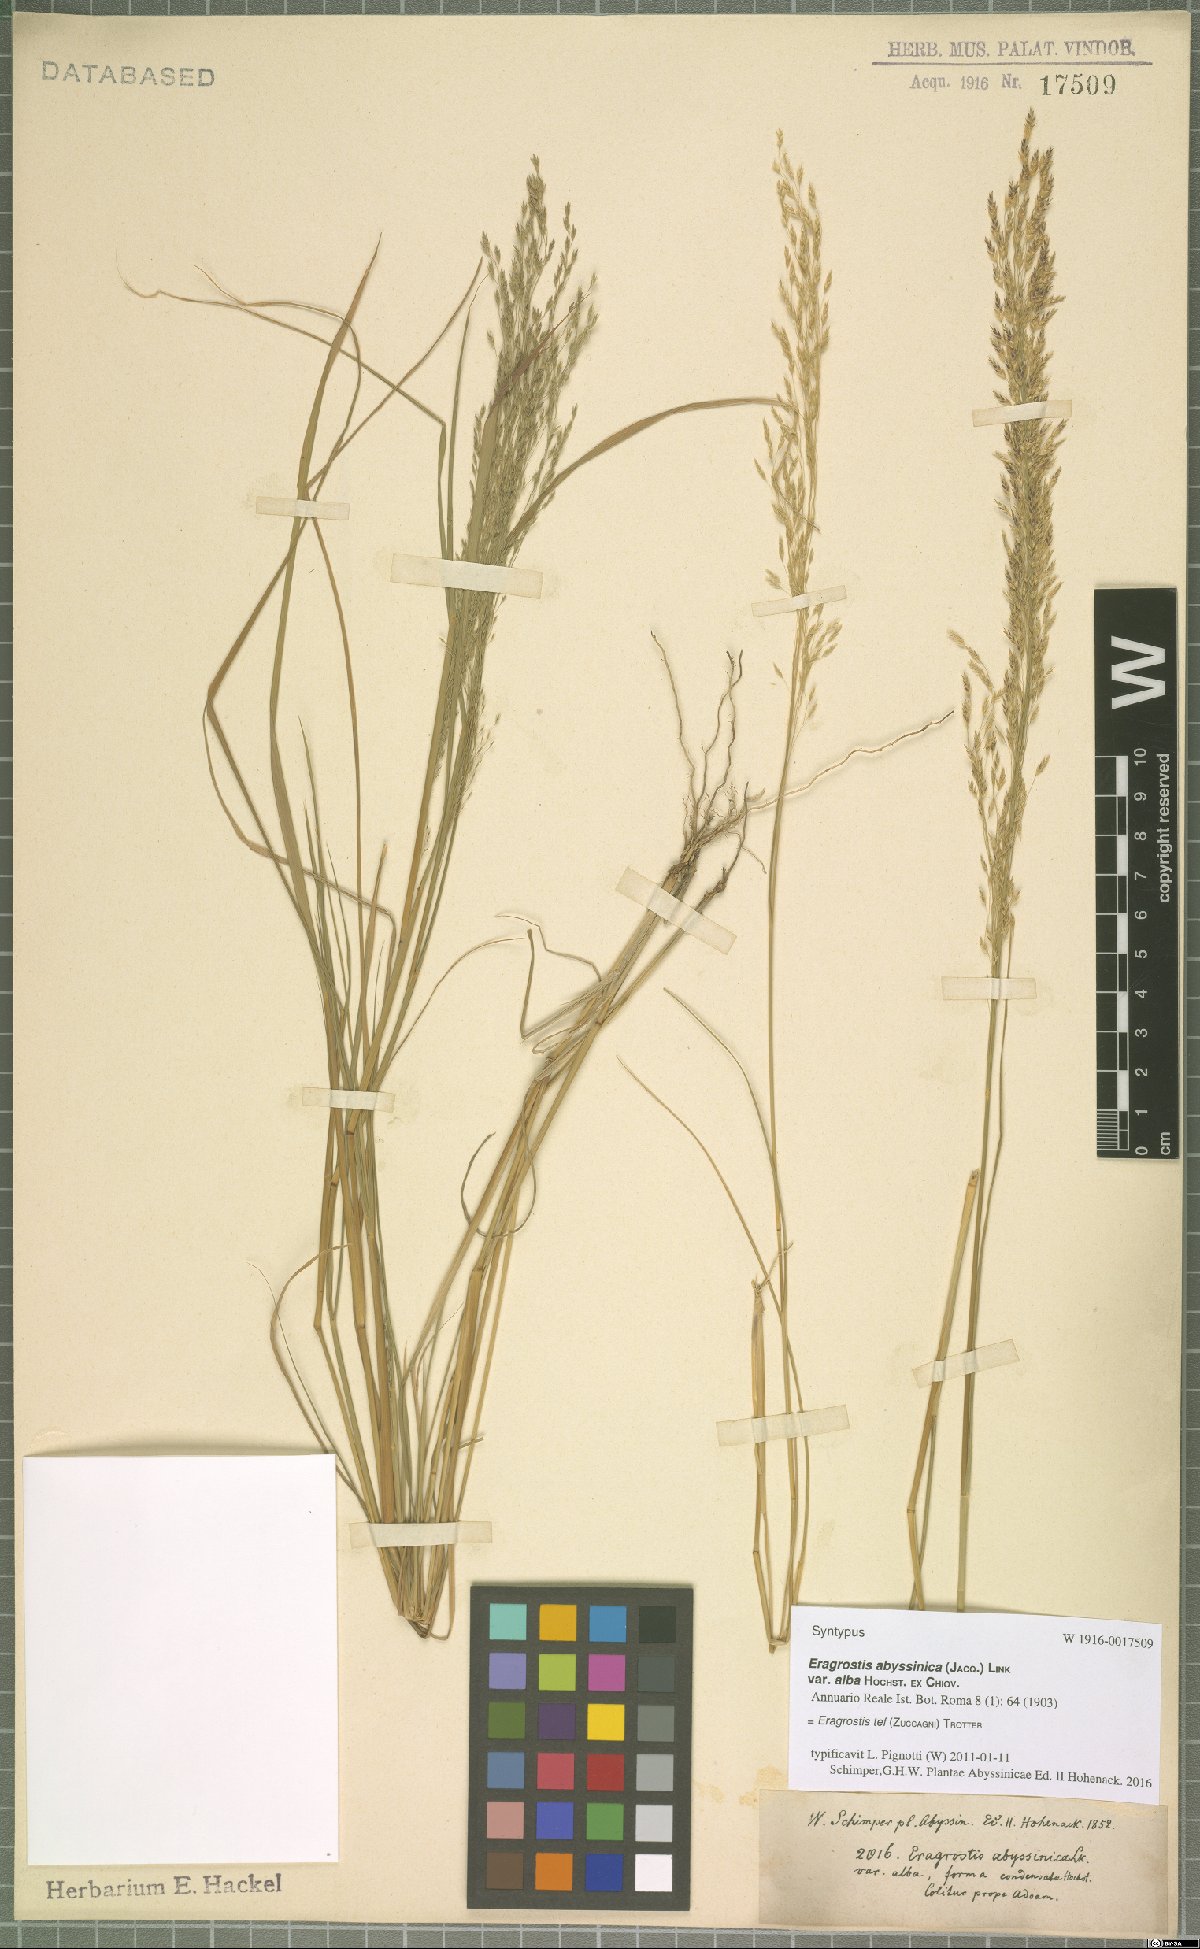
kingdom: Plantae
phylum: Tracheophyta
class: Liliopsida
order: Poales
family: Poaceae
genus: Eragrostis
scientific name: Eragrostis tef
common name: Teff
